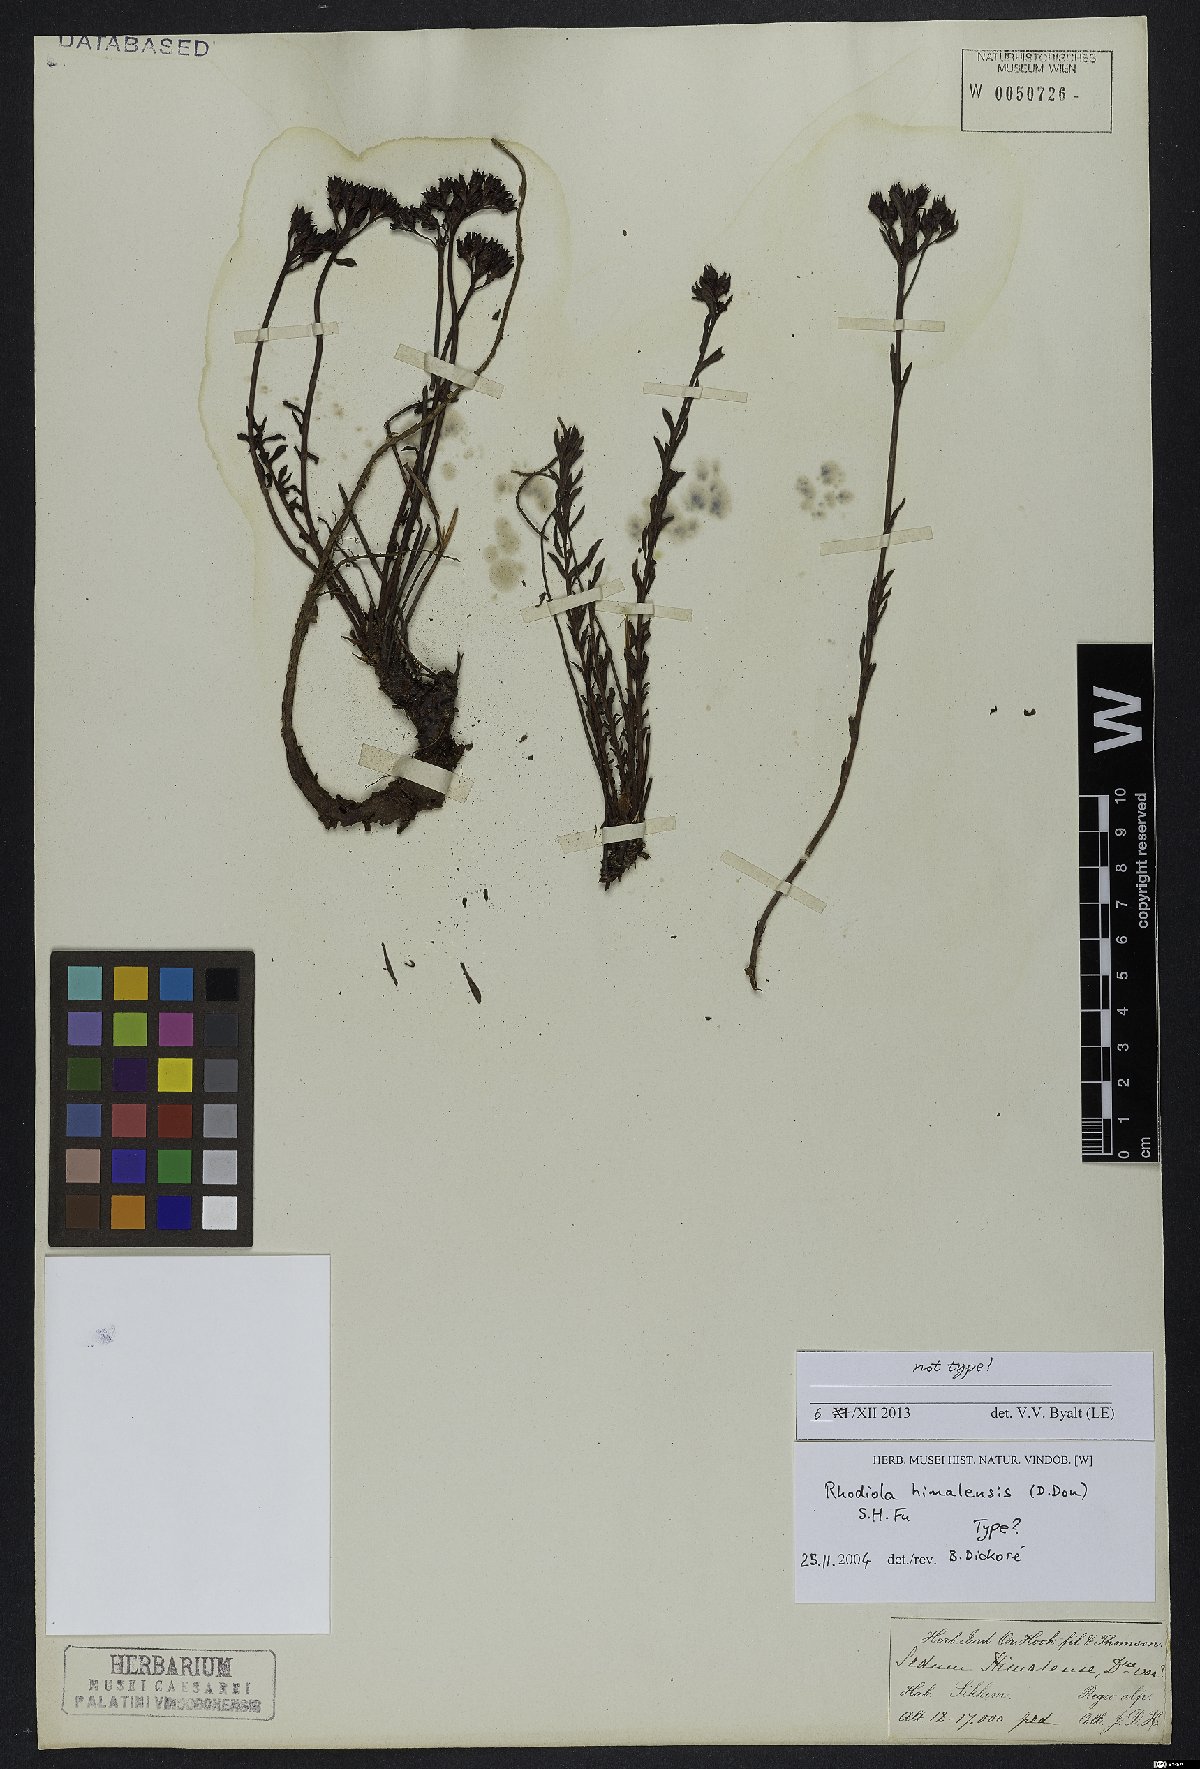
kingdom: Plantae
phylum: Tracheophyta
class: Magnoliopsida
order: Saxifragales
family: Crassulaceae
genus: Rhodiola
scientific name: Rhodiola himalensis
